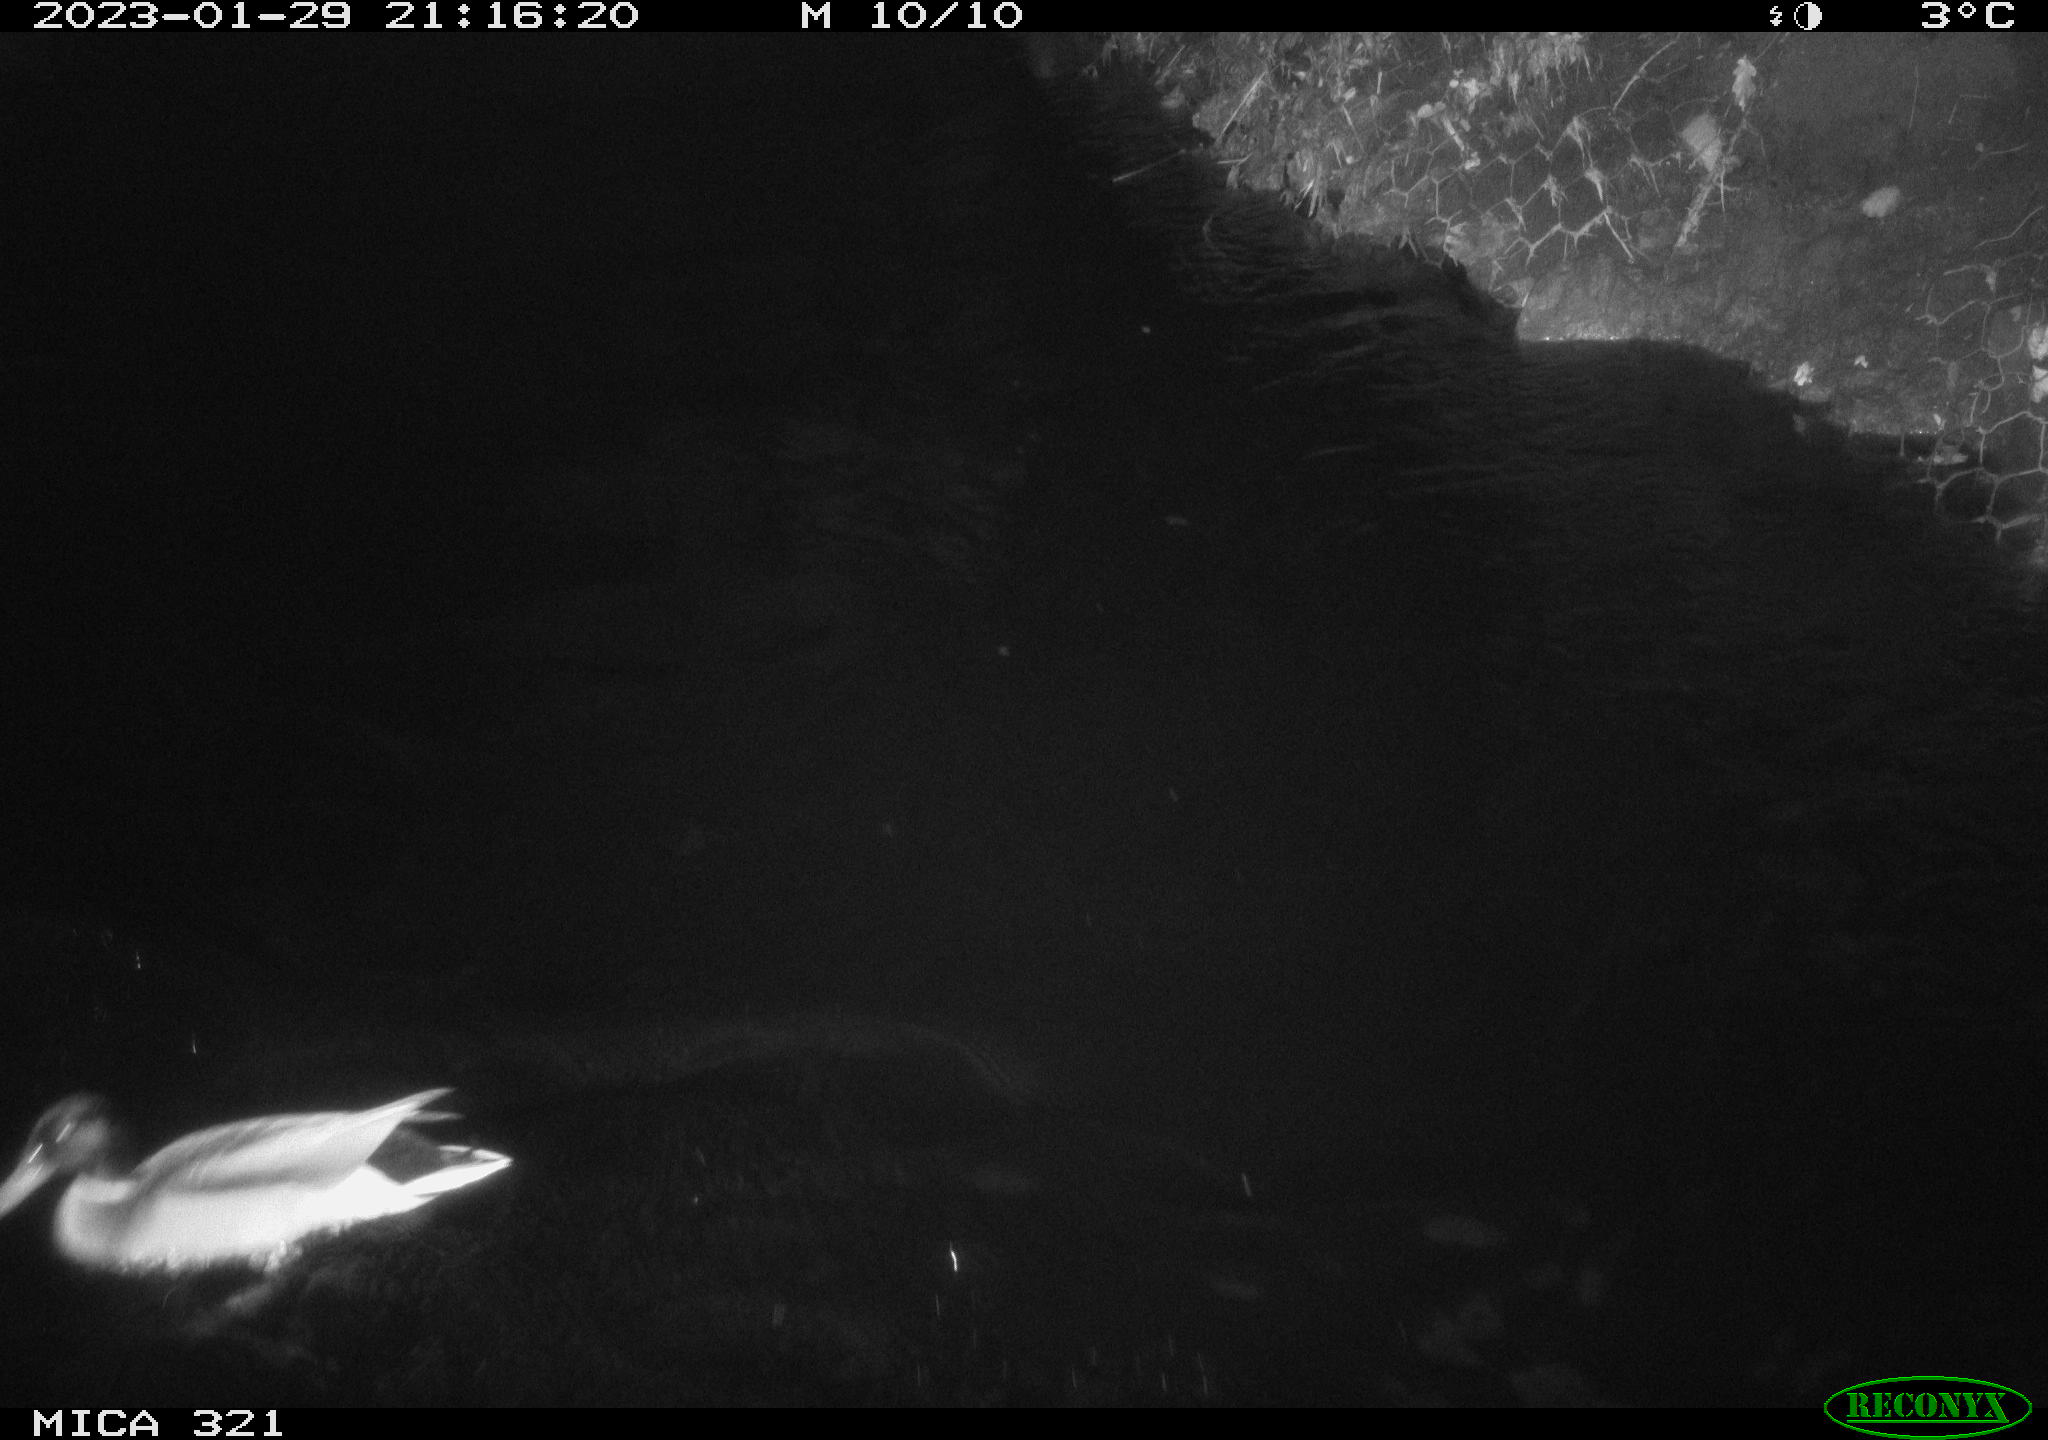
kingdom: Animalia
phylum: Chordata
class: Aves
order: Anseriformes
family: Anatidae
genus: Anas
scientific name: Anas
